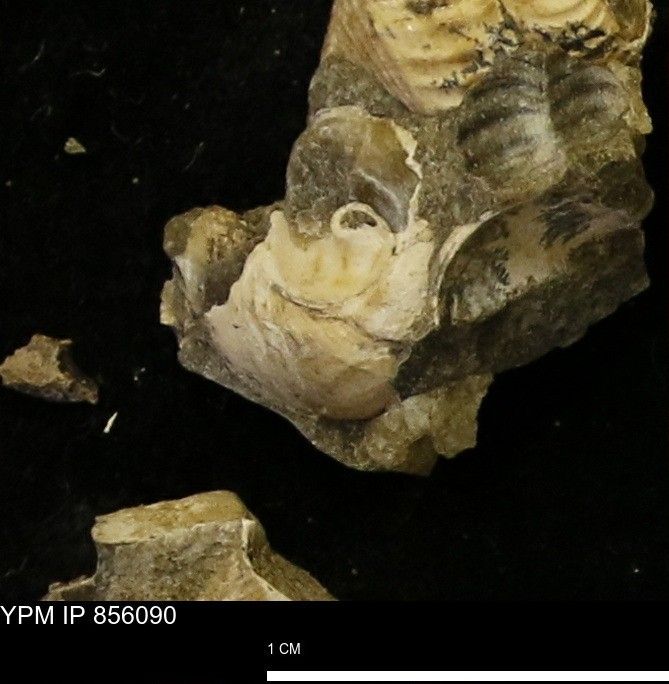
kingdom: Animalia
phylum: Mollusca
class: Gastropoda
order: Littorinimorpha
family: Aporrhaidae
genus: Drepanochilus
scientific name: Drepanochilus
